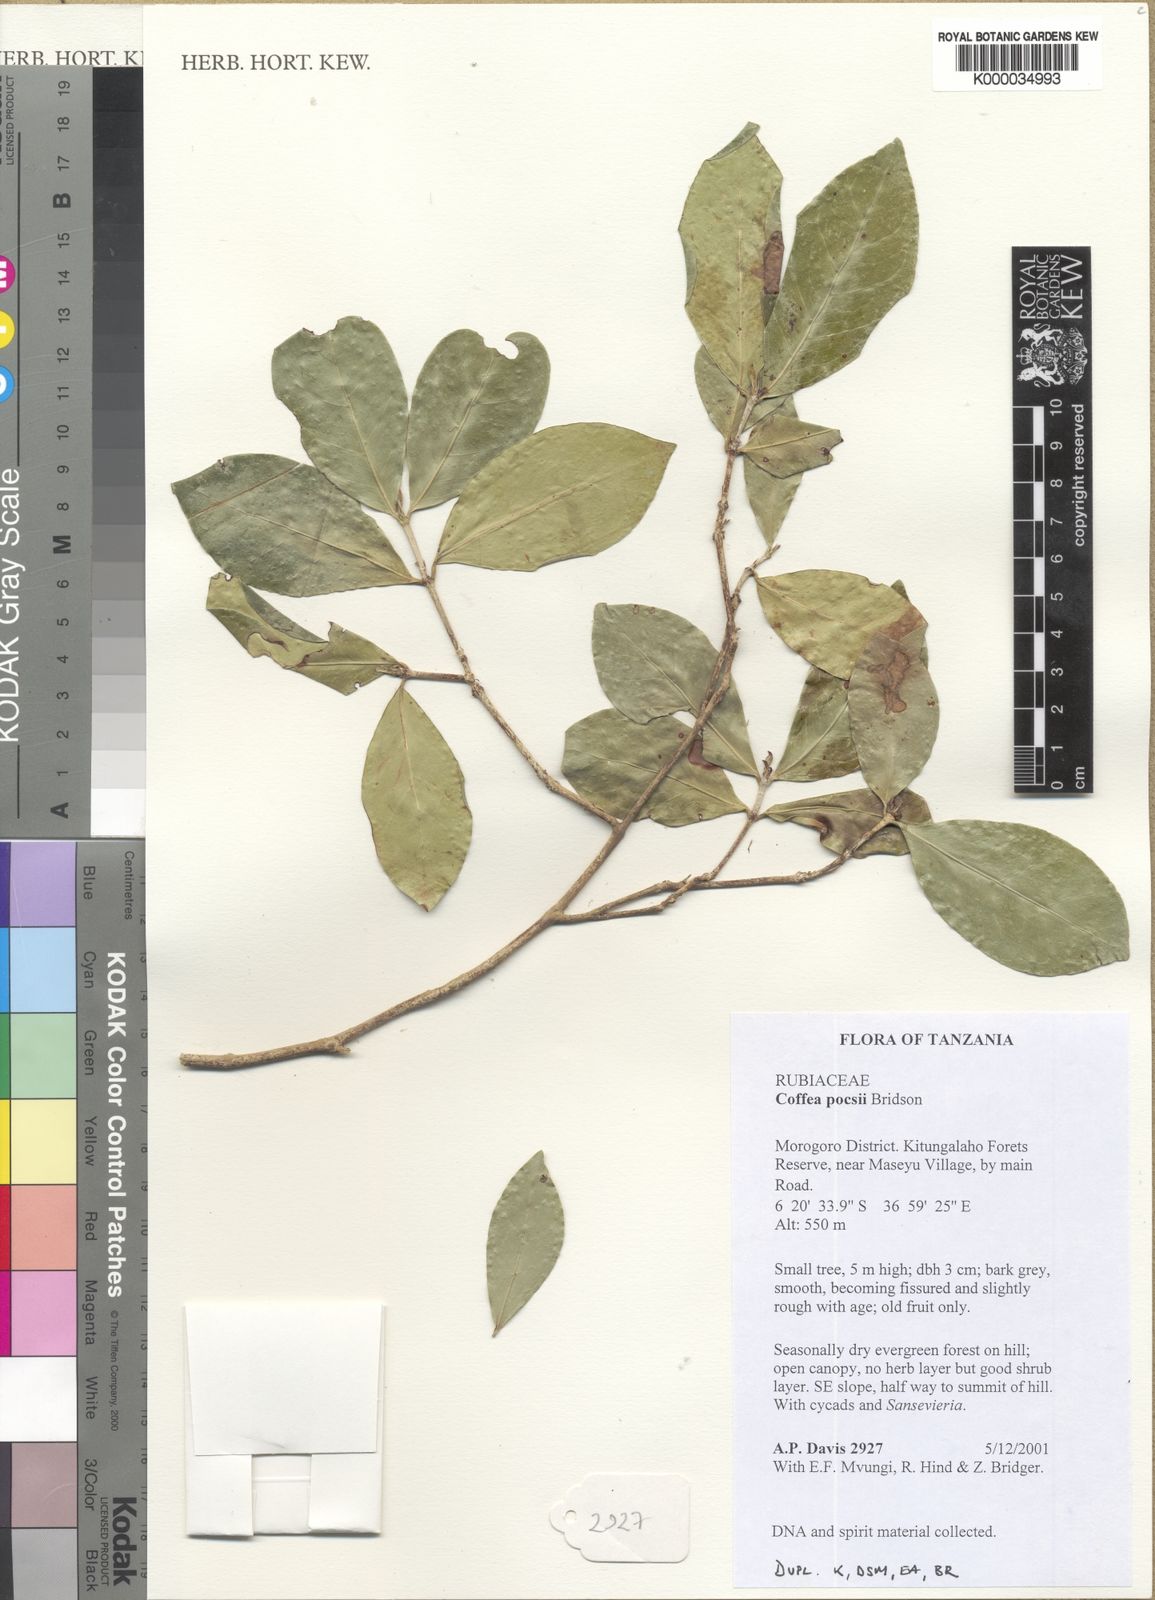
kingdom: Plantae
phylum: Tracheophyta
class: Magnoliopsida
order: Gentianales
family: Rubiaceae
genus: Coffea
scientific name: Coffea pocsii
